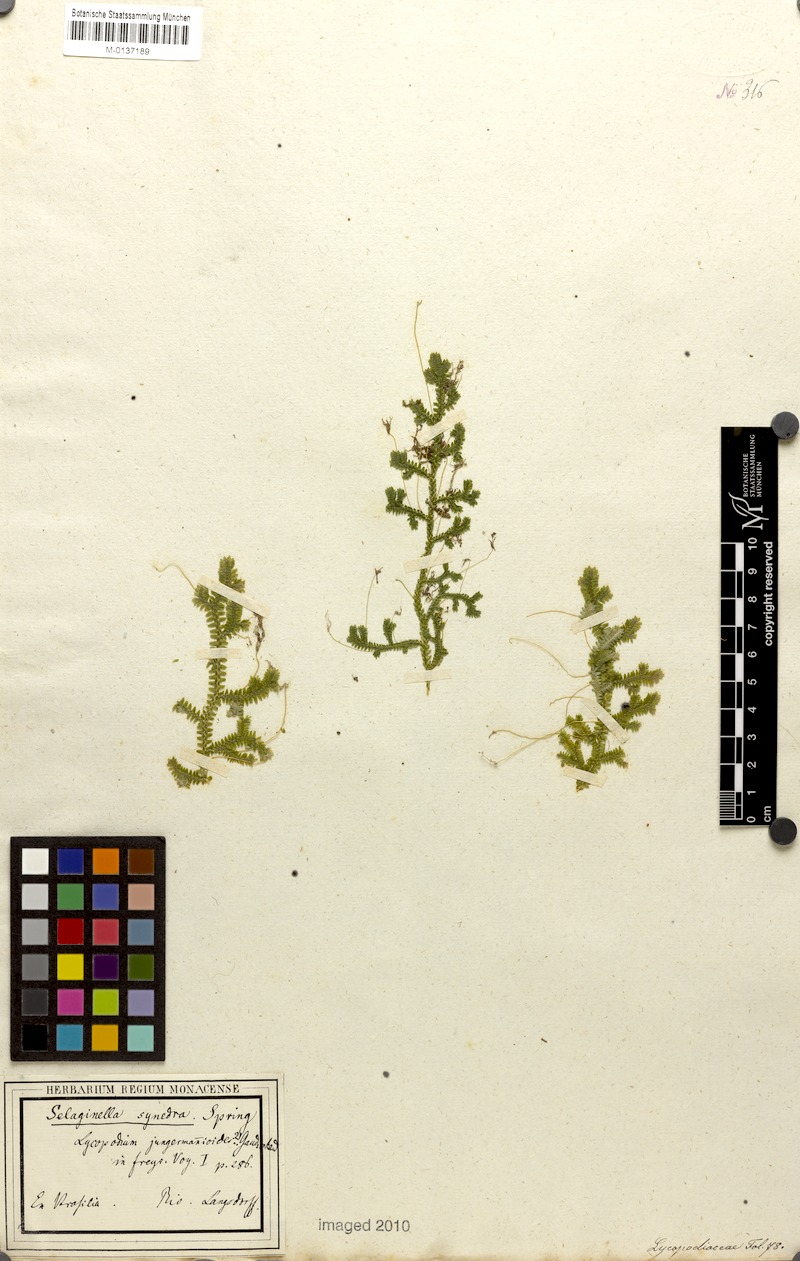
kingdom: Plantae
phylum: Tracheophyta
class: Lycopodiopsida
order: Selaginellales
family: Selaginellaceae
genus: Selaginella
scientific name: Selaginella jungermannioides
